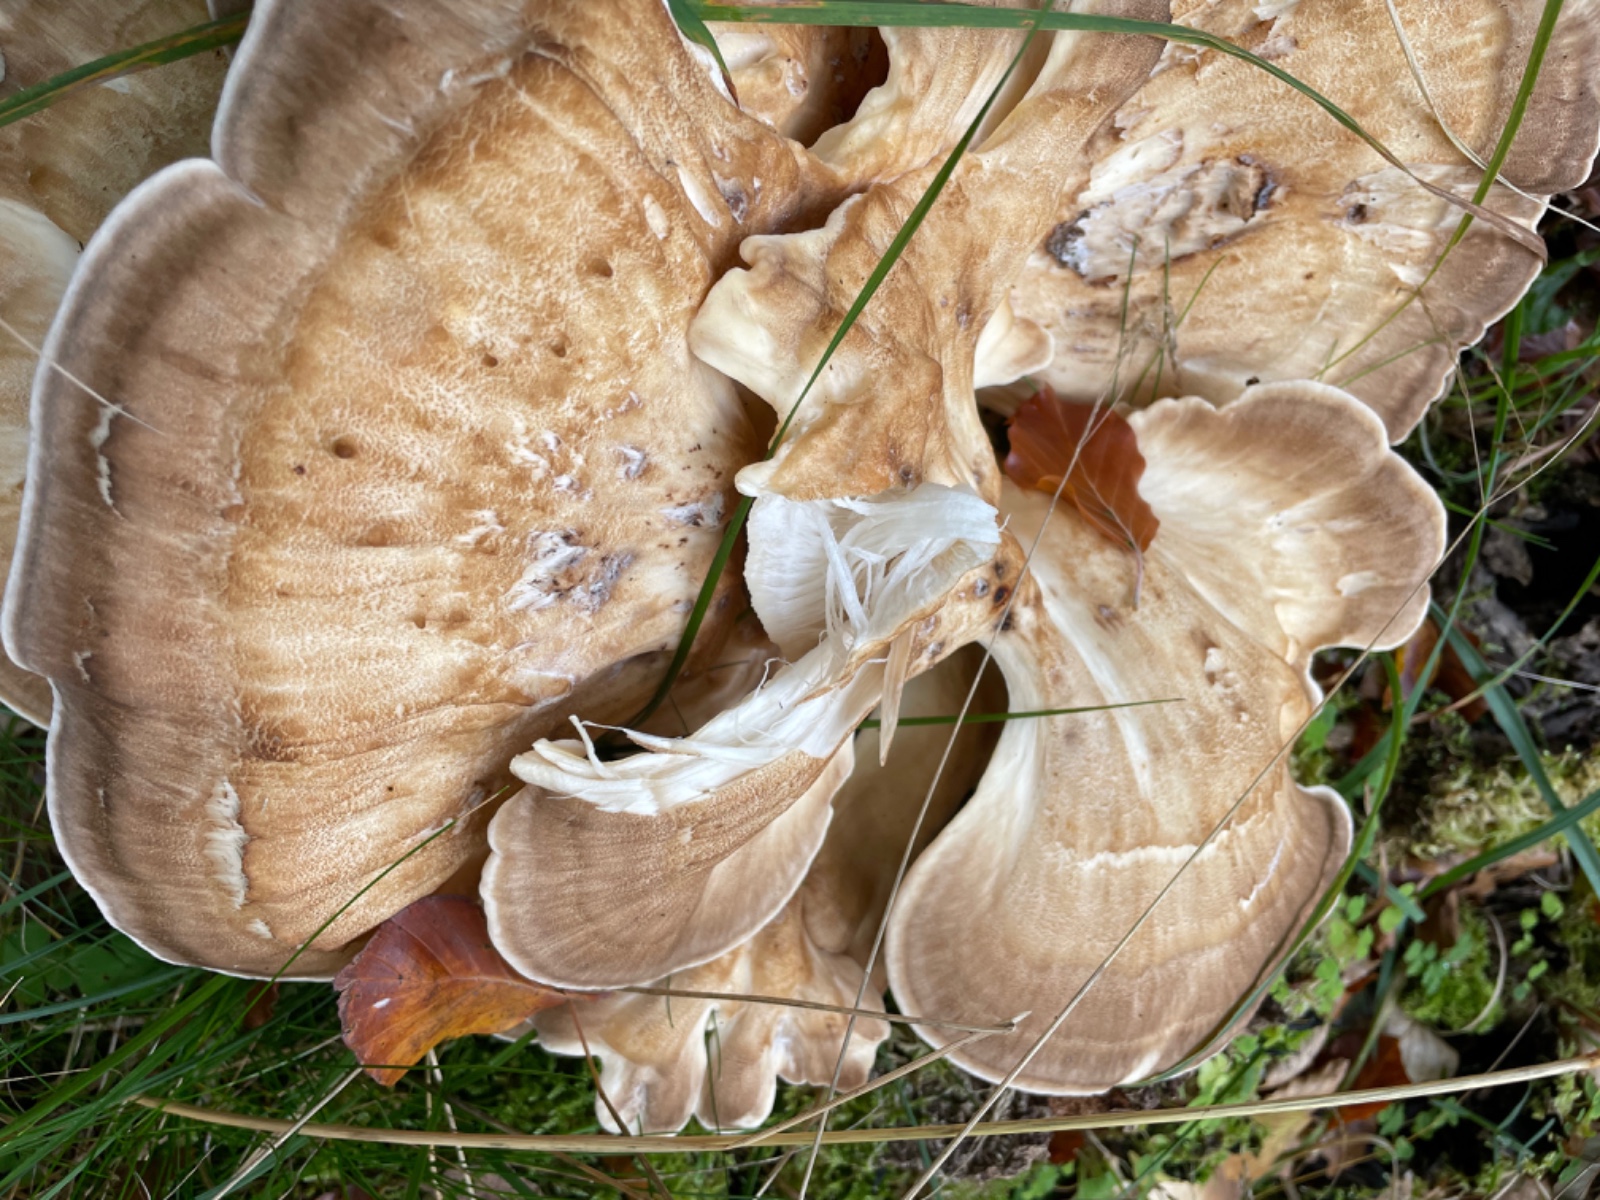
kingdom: Fungi
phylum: Basidiomycota
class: Agaricomycetes
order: Polyporales
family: Meripilaceae
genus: Meripilus
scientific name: Meripilus giganteus
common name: kæmpeporesvamp
